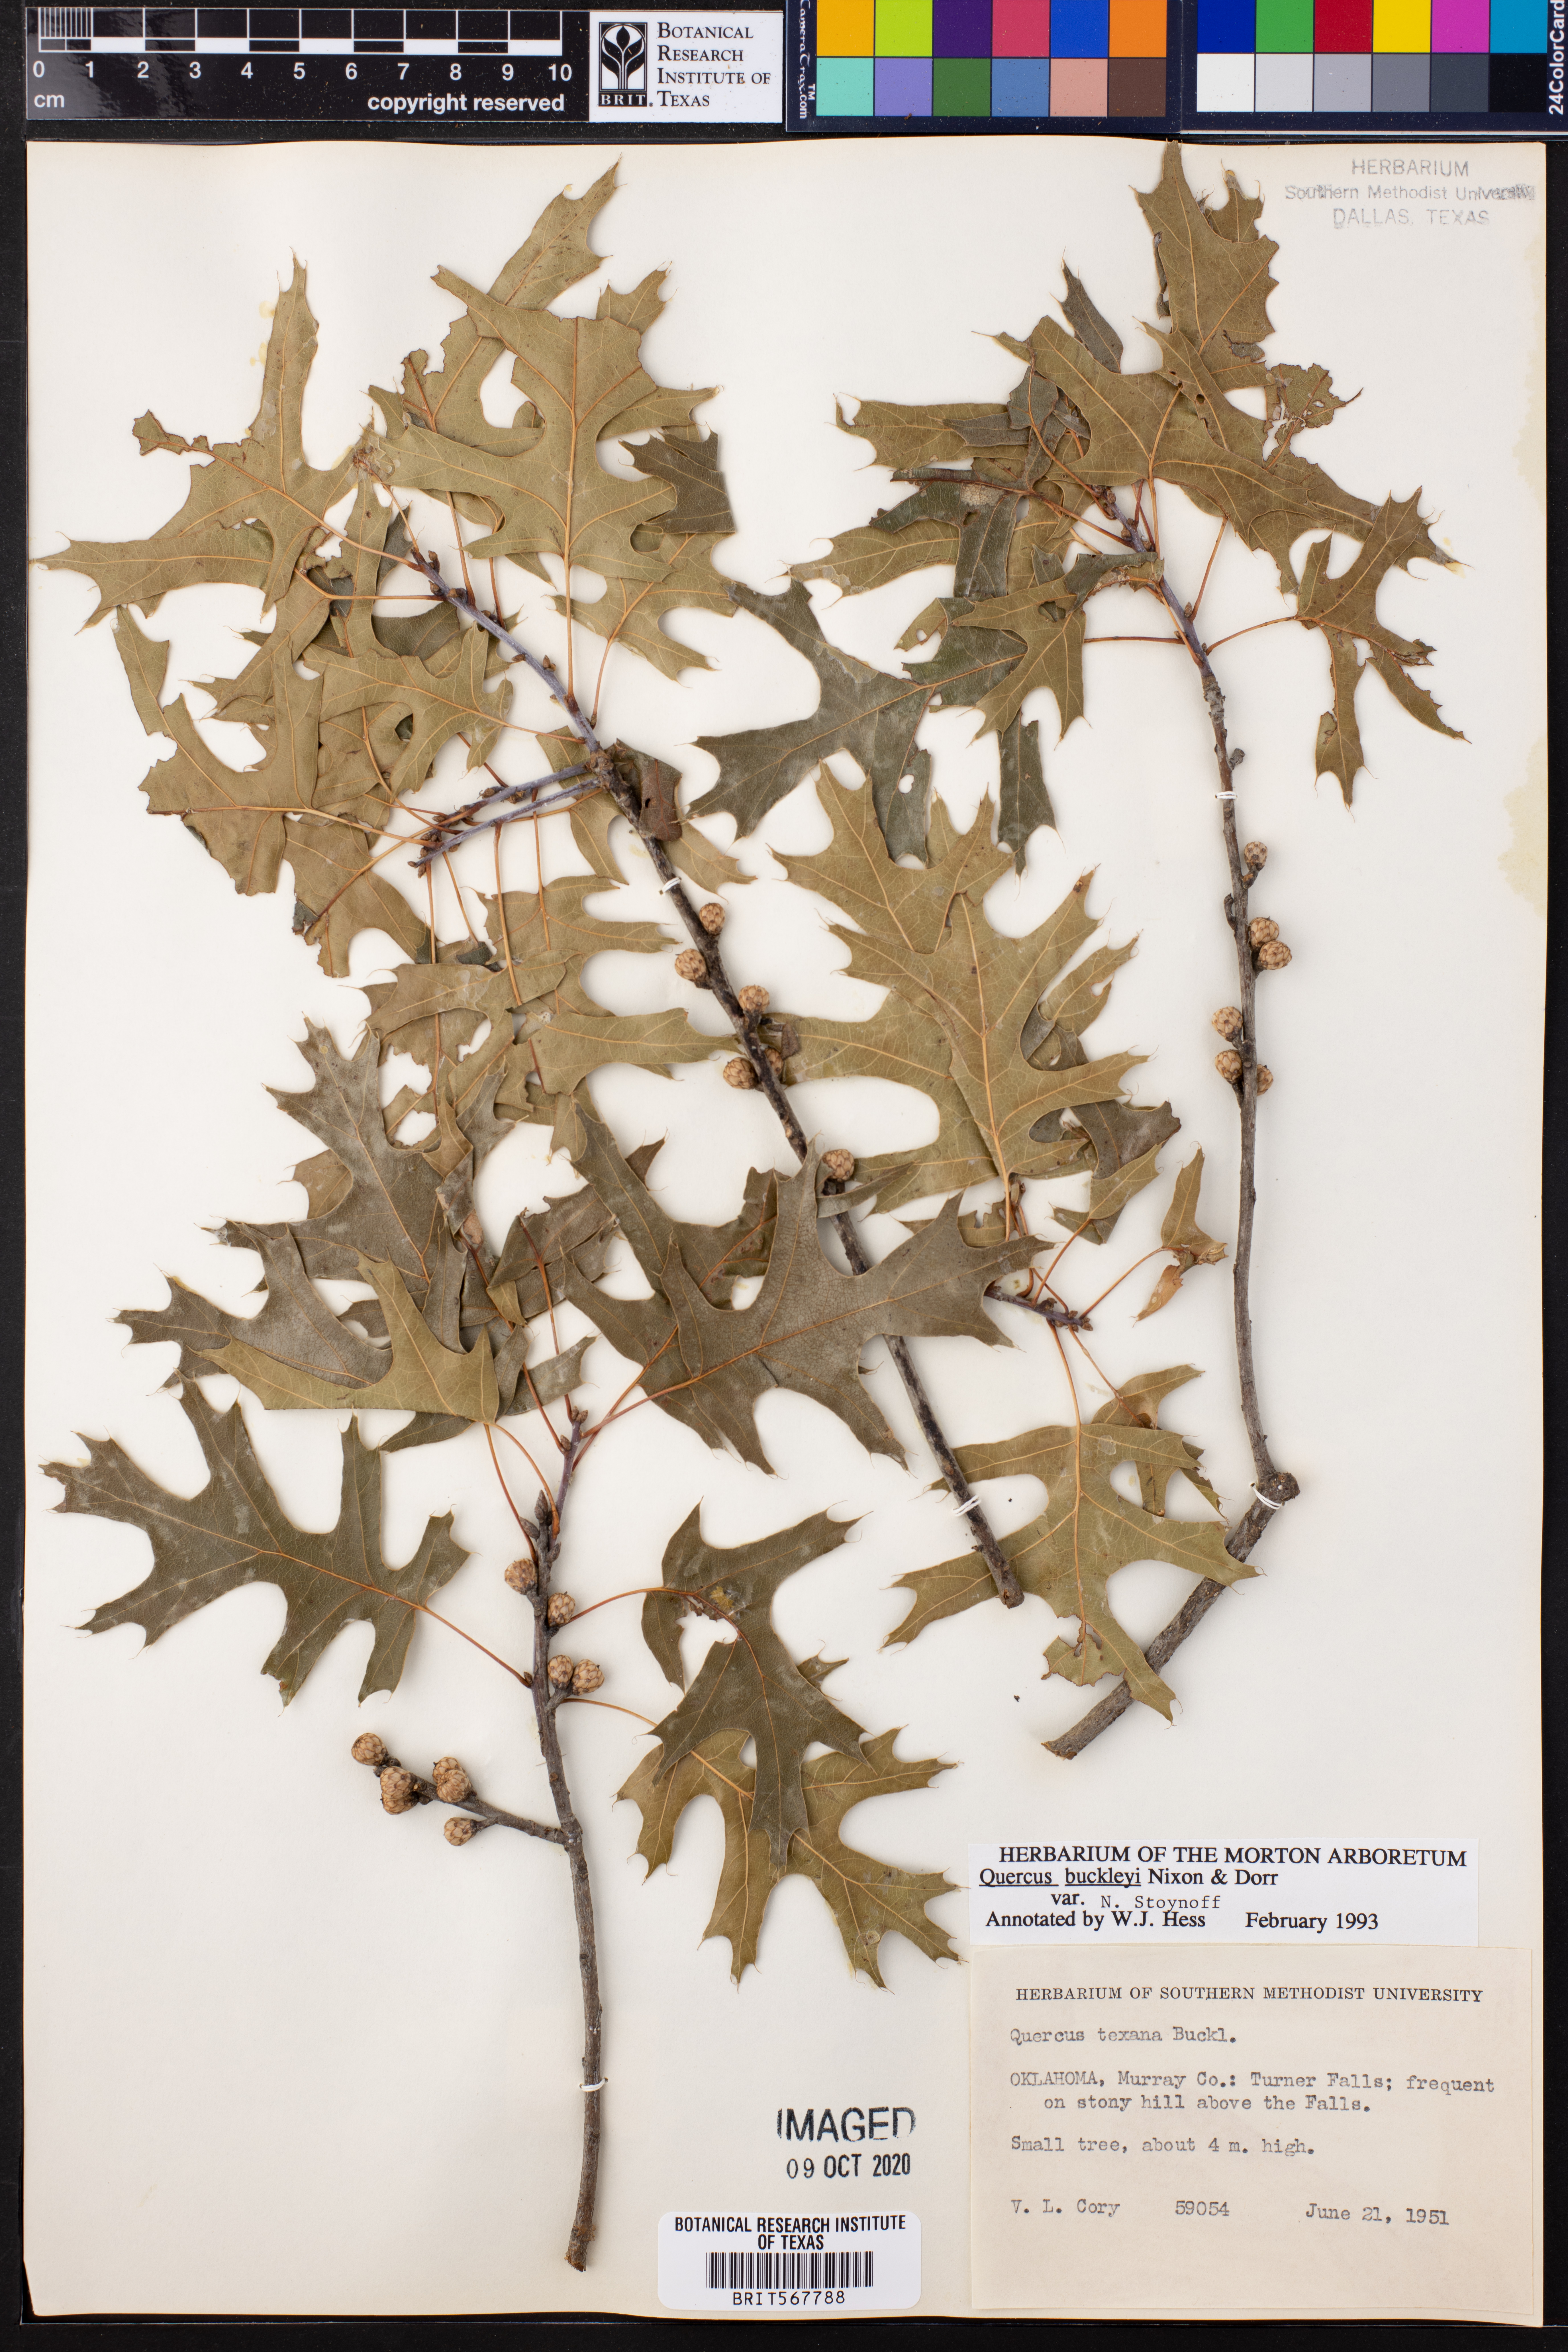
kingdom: Plantae
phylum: Tracheophyta
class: Magnoliopsida
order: Fagales
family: Fagaceae
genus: Quercus
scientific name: Quercus buckleyi
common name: Buckley oak
